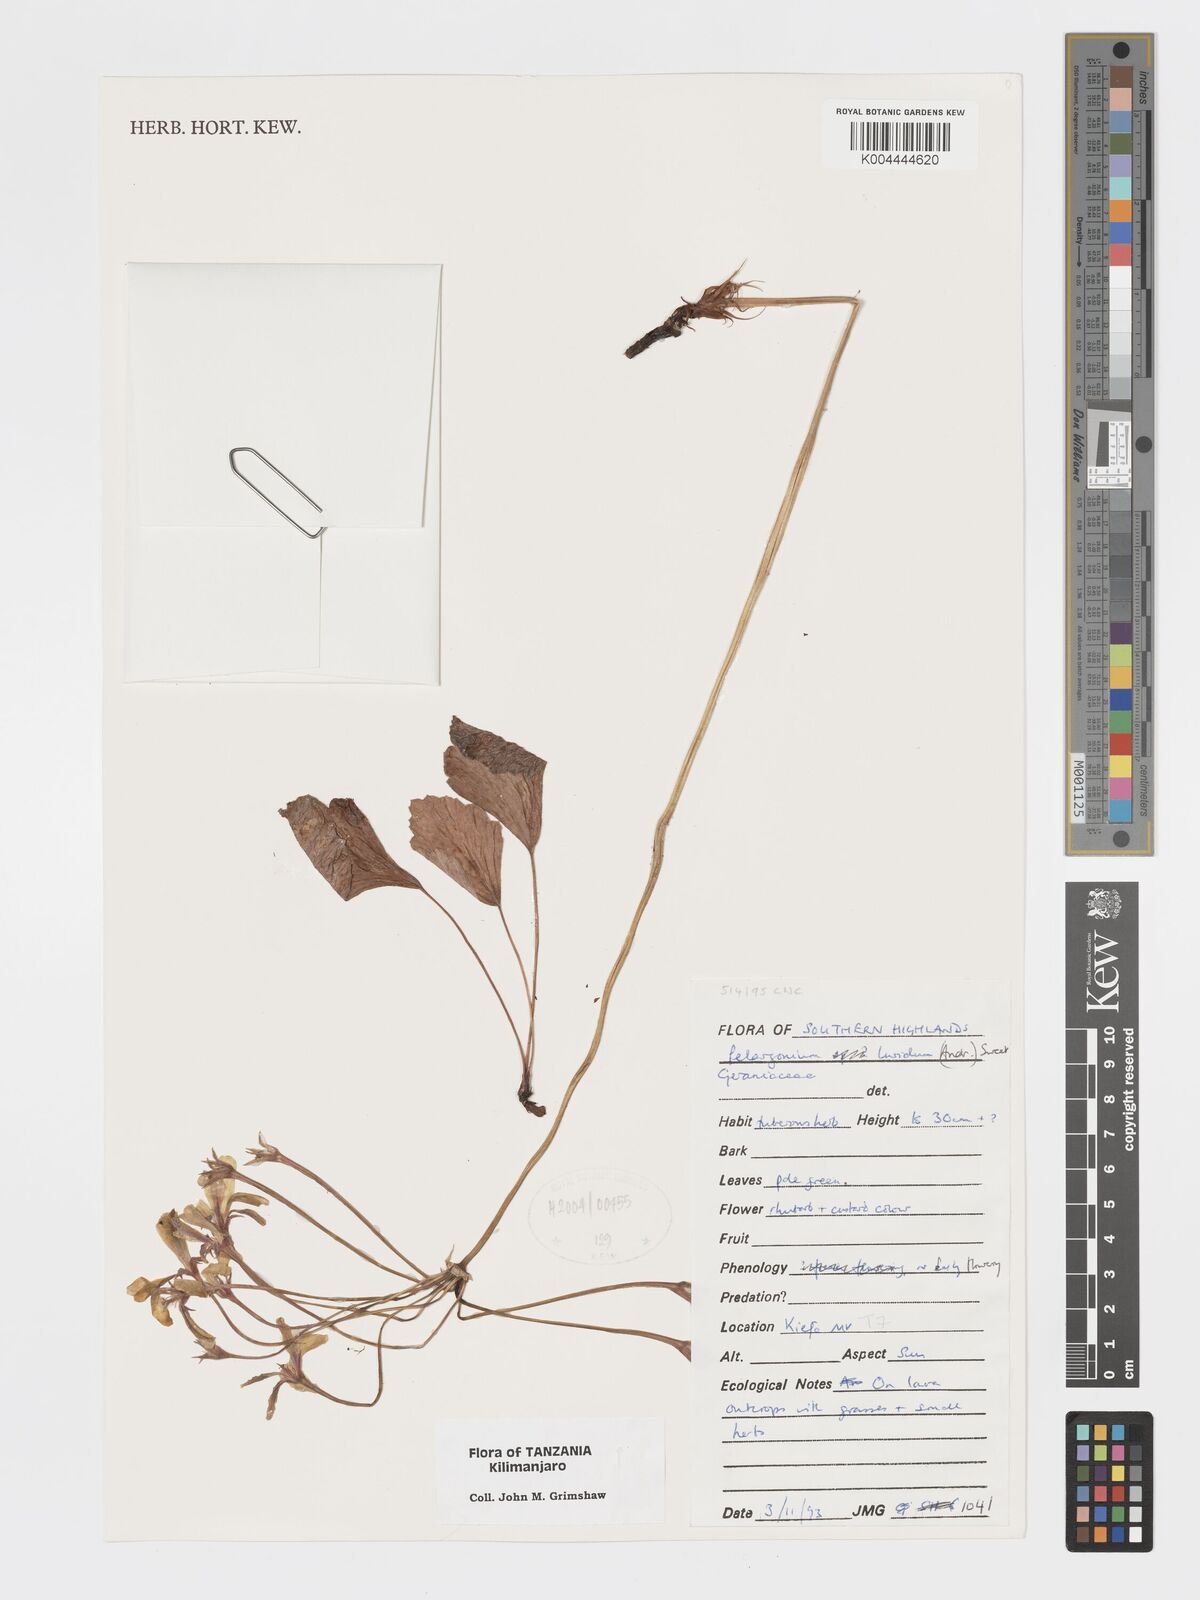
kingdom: Plantae
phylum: Tracheophyta
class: Magnoliopsida
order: Geraniales
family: Geraniaceae
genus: Pelargonium
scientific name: Pelargonium luridum
